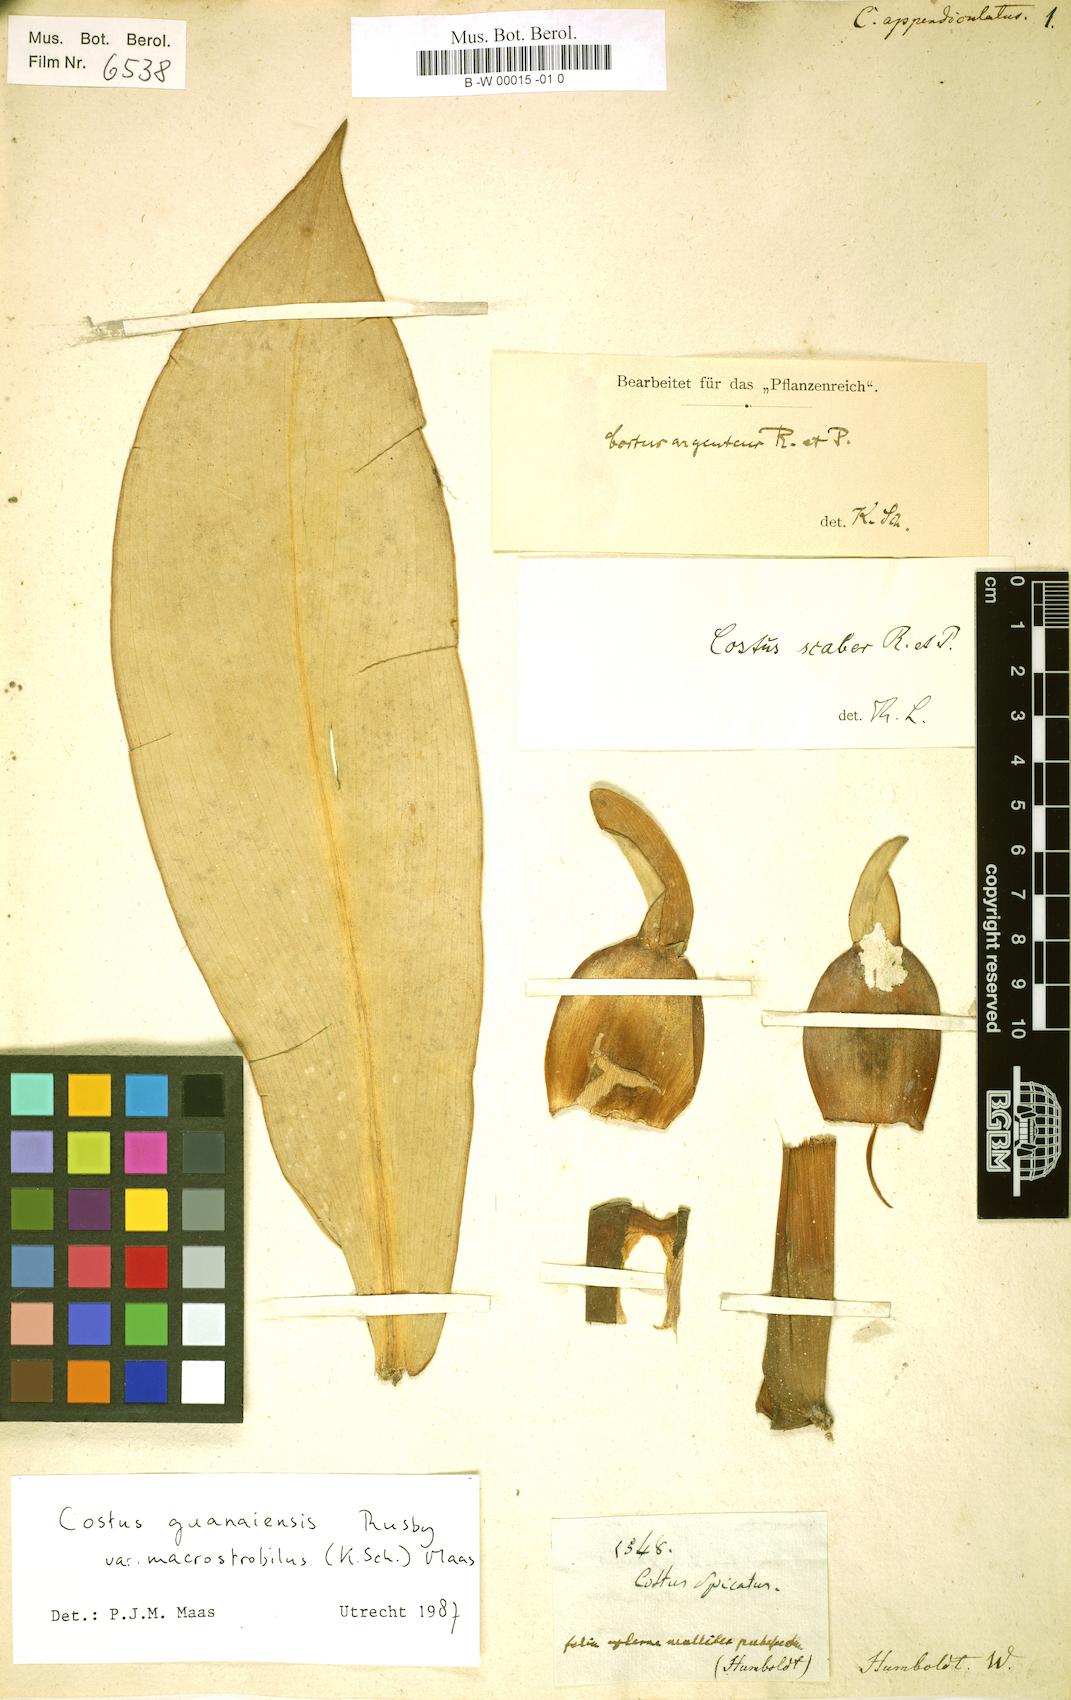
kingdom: Plantae
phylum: Tracheophyta
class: Liliopsida
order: Zingiberales
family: Costaceae
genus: Dimerocostus
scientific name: Dimerocostus argenteus
